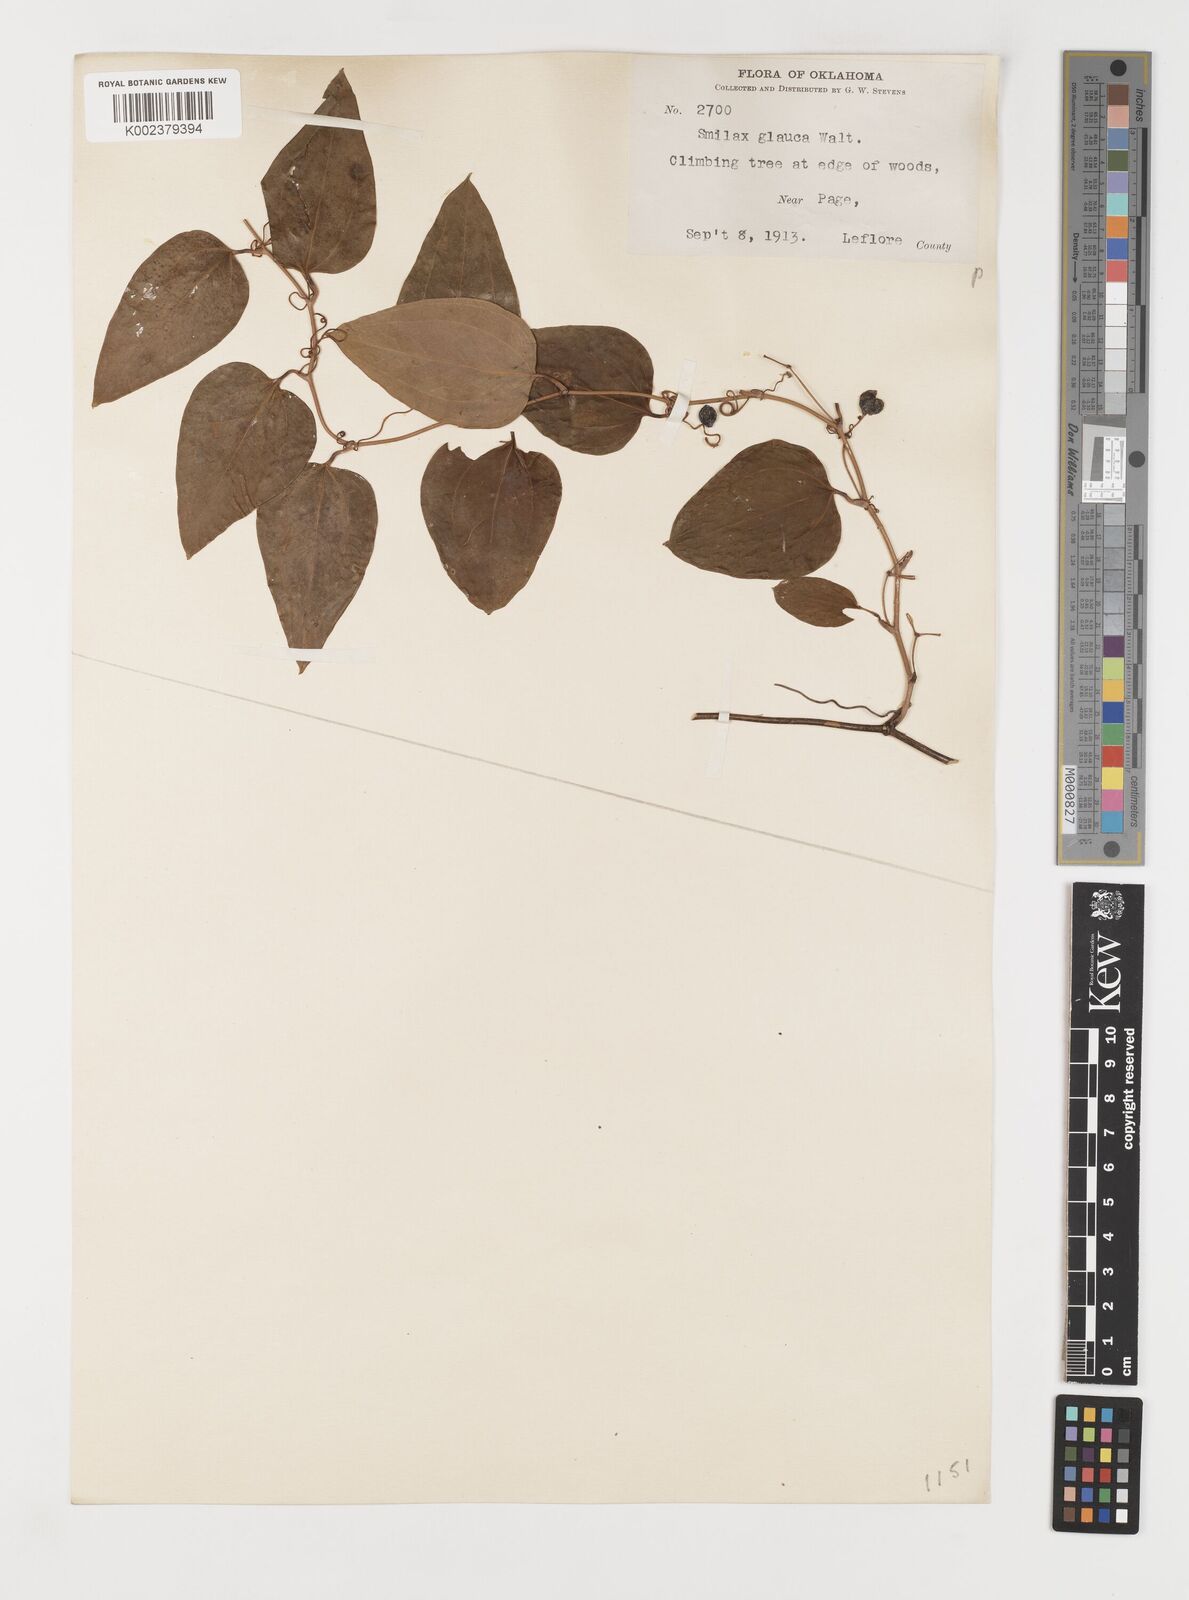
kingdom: Plantae
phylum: Tracheophyta
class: Liliopsida
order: Liliales
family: Smilacaceae
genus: Smilax
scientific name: Smilax glauca
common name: Cat greenbrier
